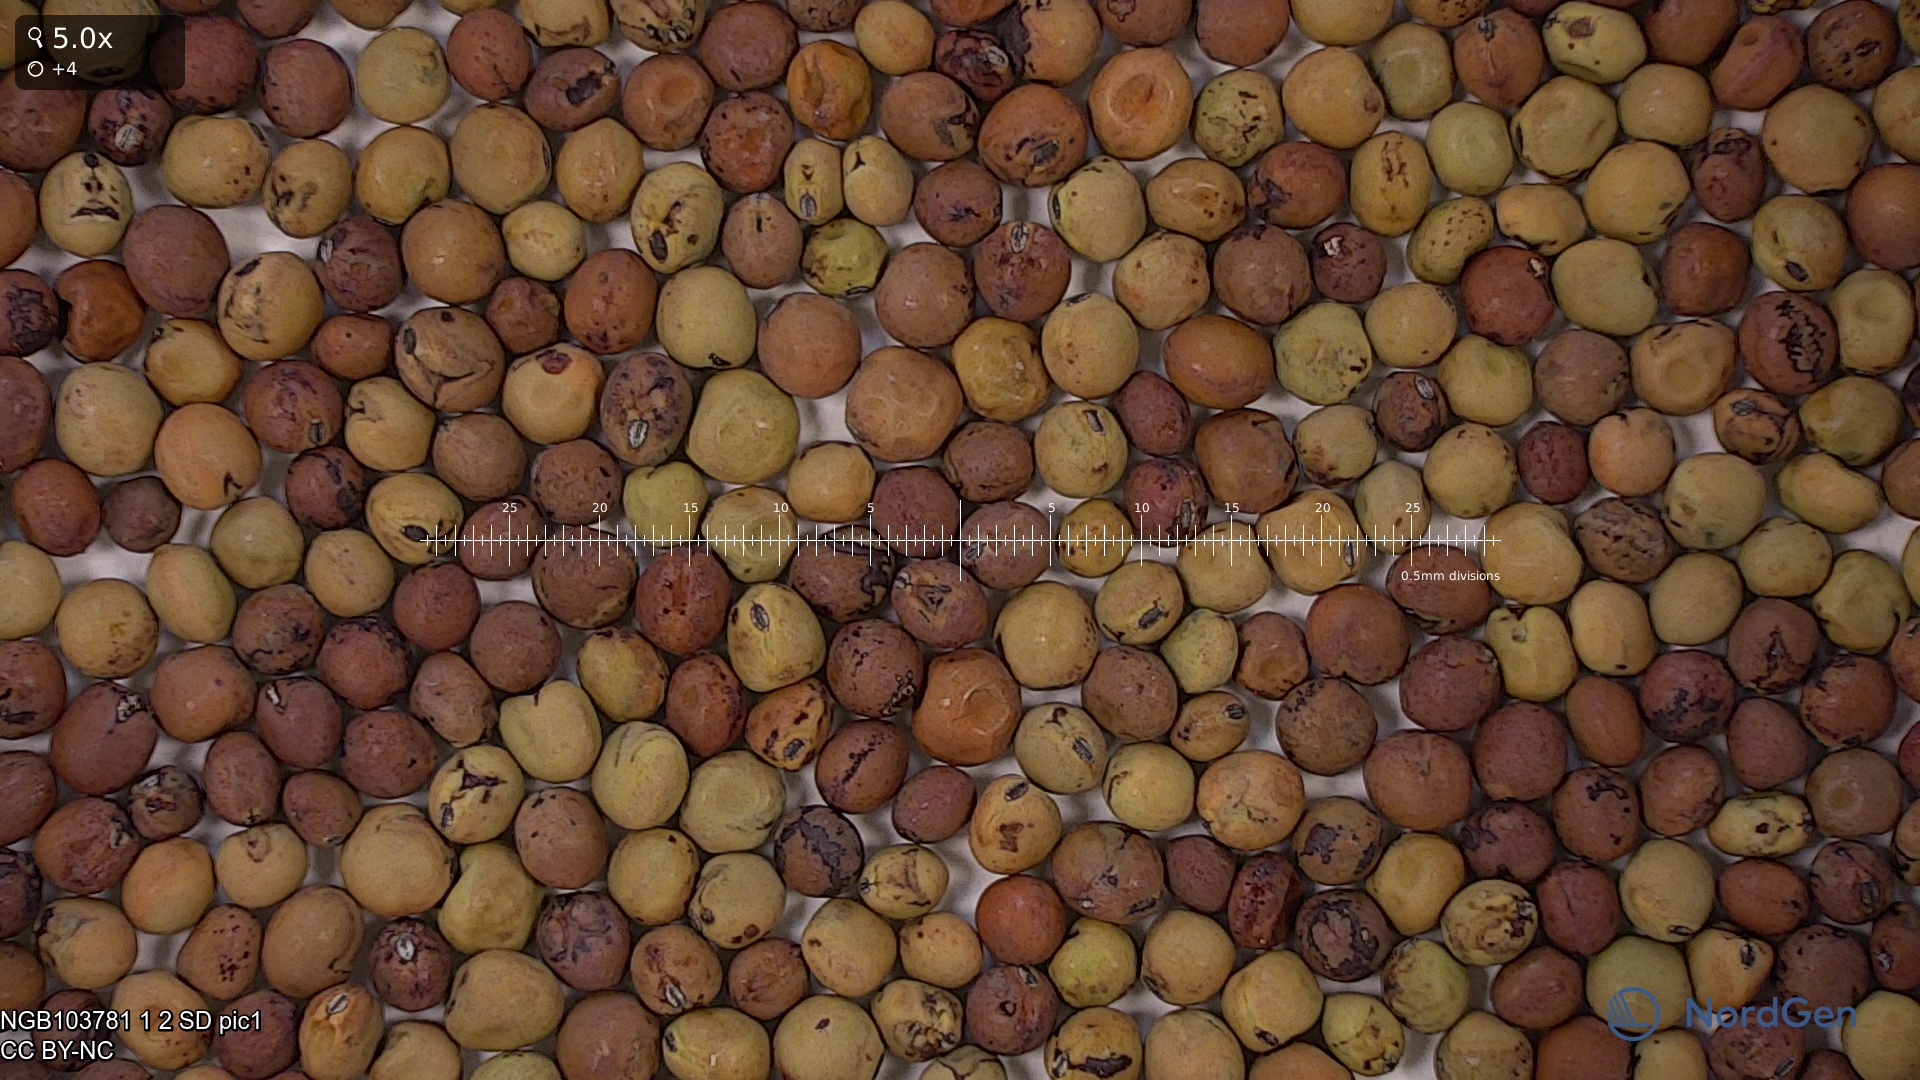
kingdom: Plantae
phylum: Tracheophyta
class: Magnoliopsida
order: Fabales
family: Fabaceae
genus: Lathyrus
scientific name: Lathyrus oleraceus
